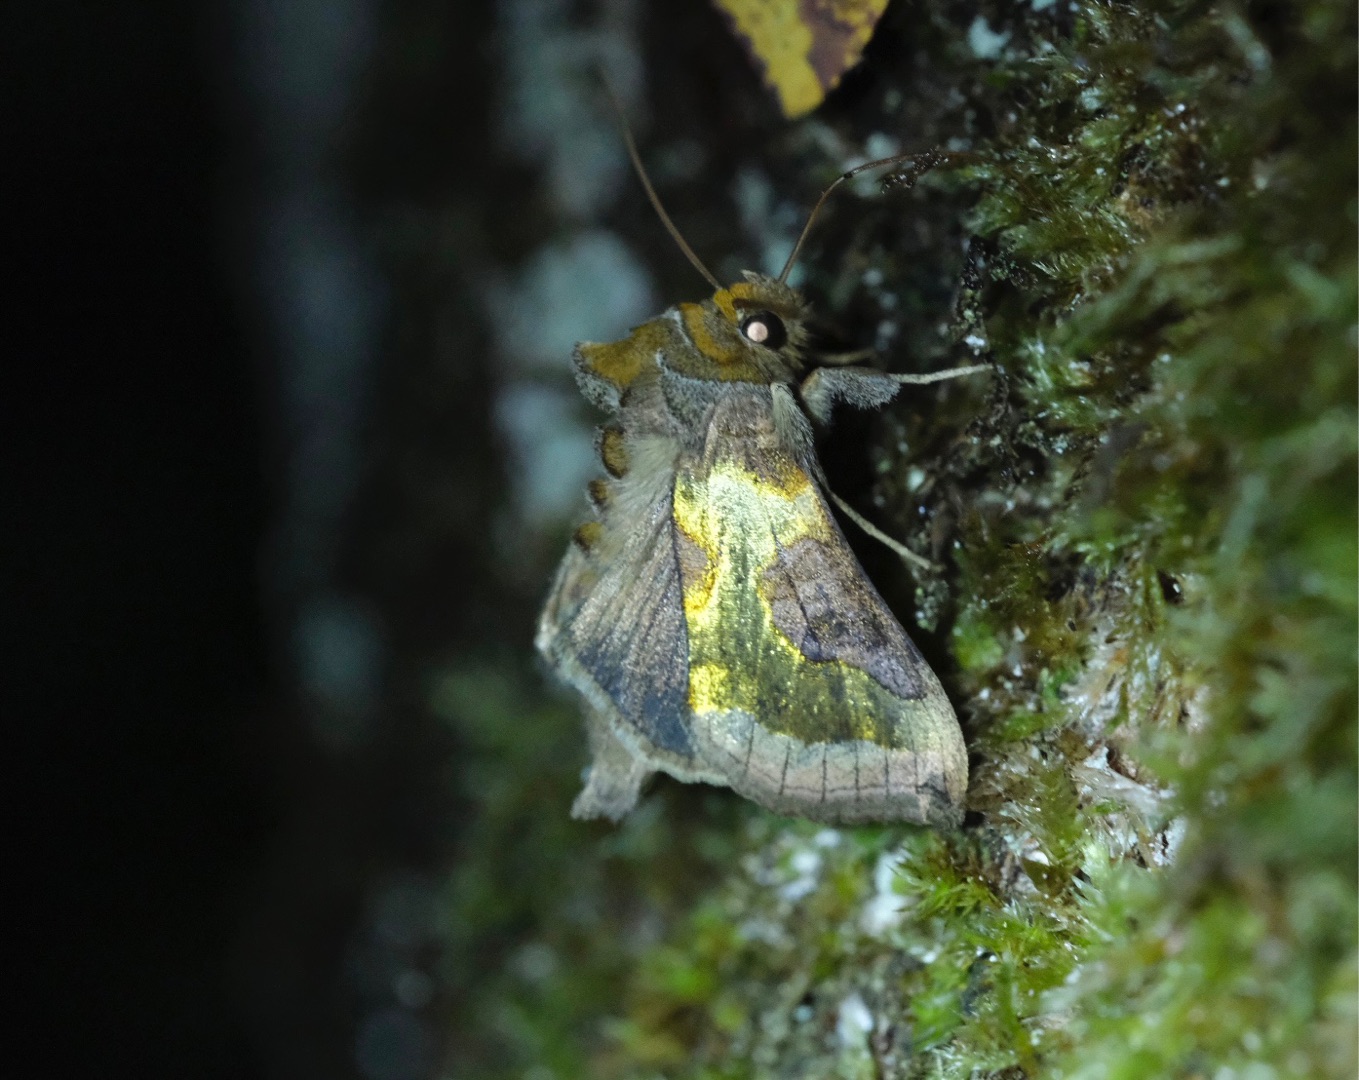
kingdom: Animalia
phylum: Arthropoda
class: Insecta
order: Lepidoptera
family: Noctuidae
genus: Diachrysia
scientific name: Diachrysia stenochrysis
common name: Udelt messingugle
